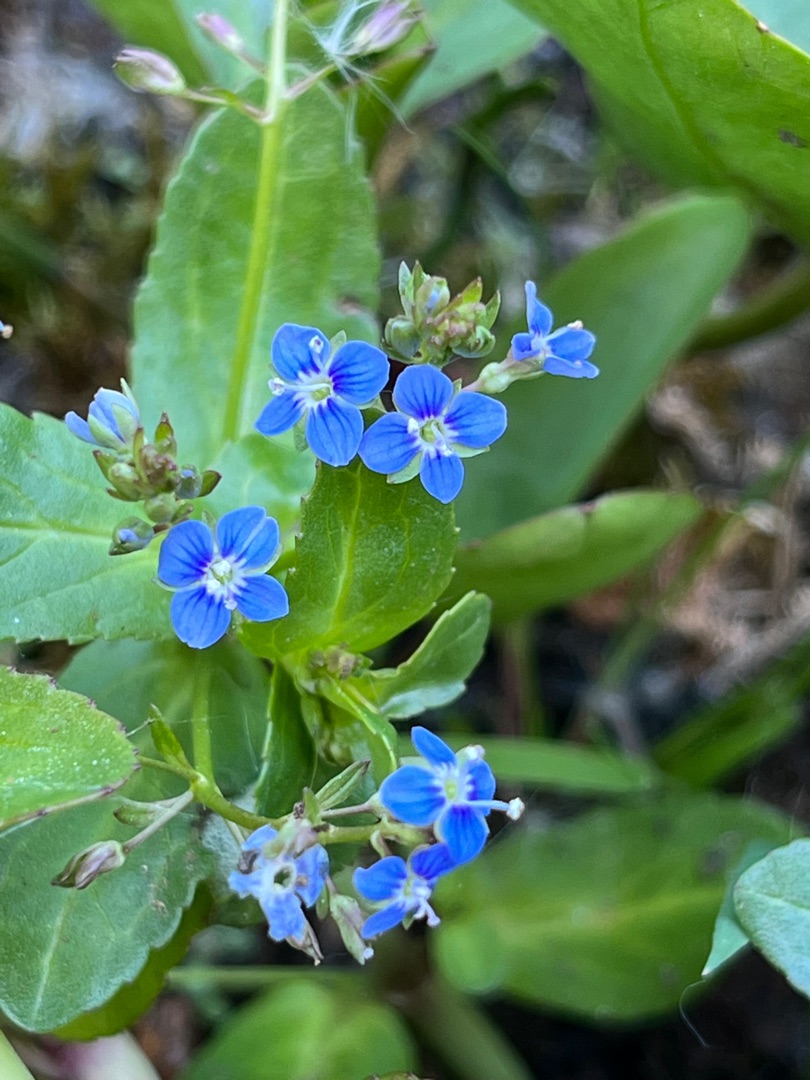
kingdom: Plantae
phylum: Tracheophyta
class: Magnoliopsida
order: Lamiales
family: Plantaginaceae
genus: Veronica
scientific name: Veronica beccabunga
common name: Tykbladet ærenpris
